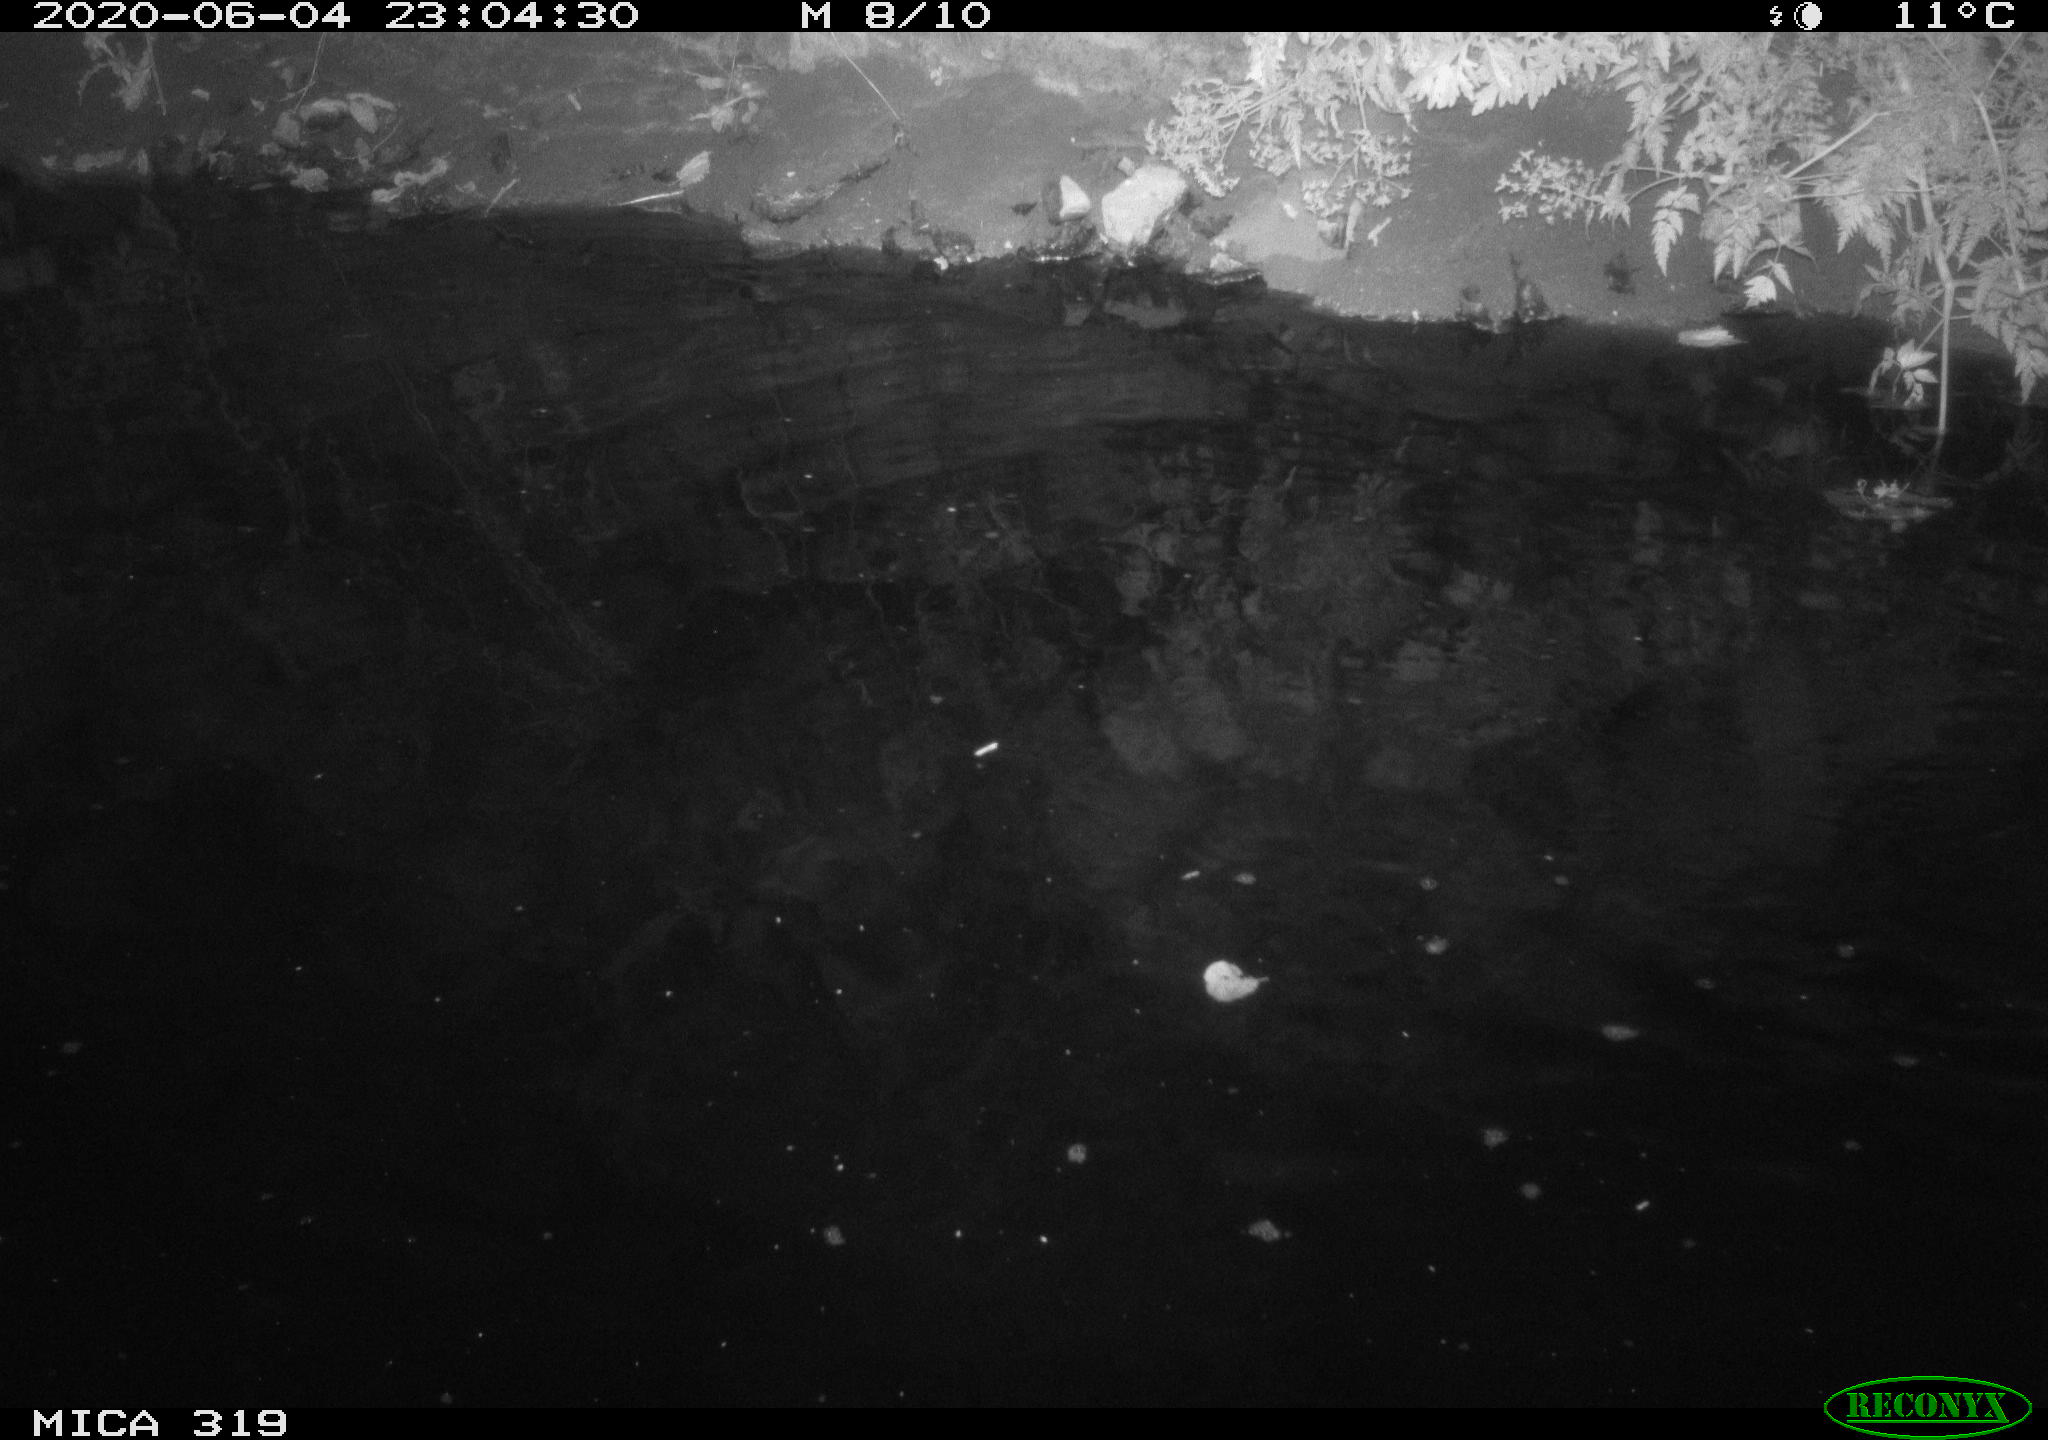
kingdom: Animalia
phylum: Chordata
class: Aves
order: Anseriformes
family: Anatidae
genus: Anas
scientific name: Anas platyrhynchos
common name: Mallard
